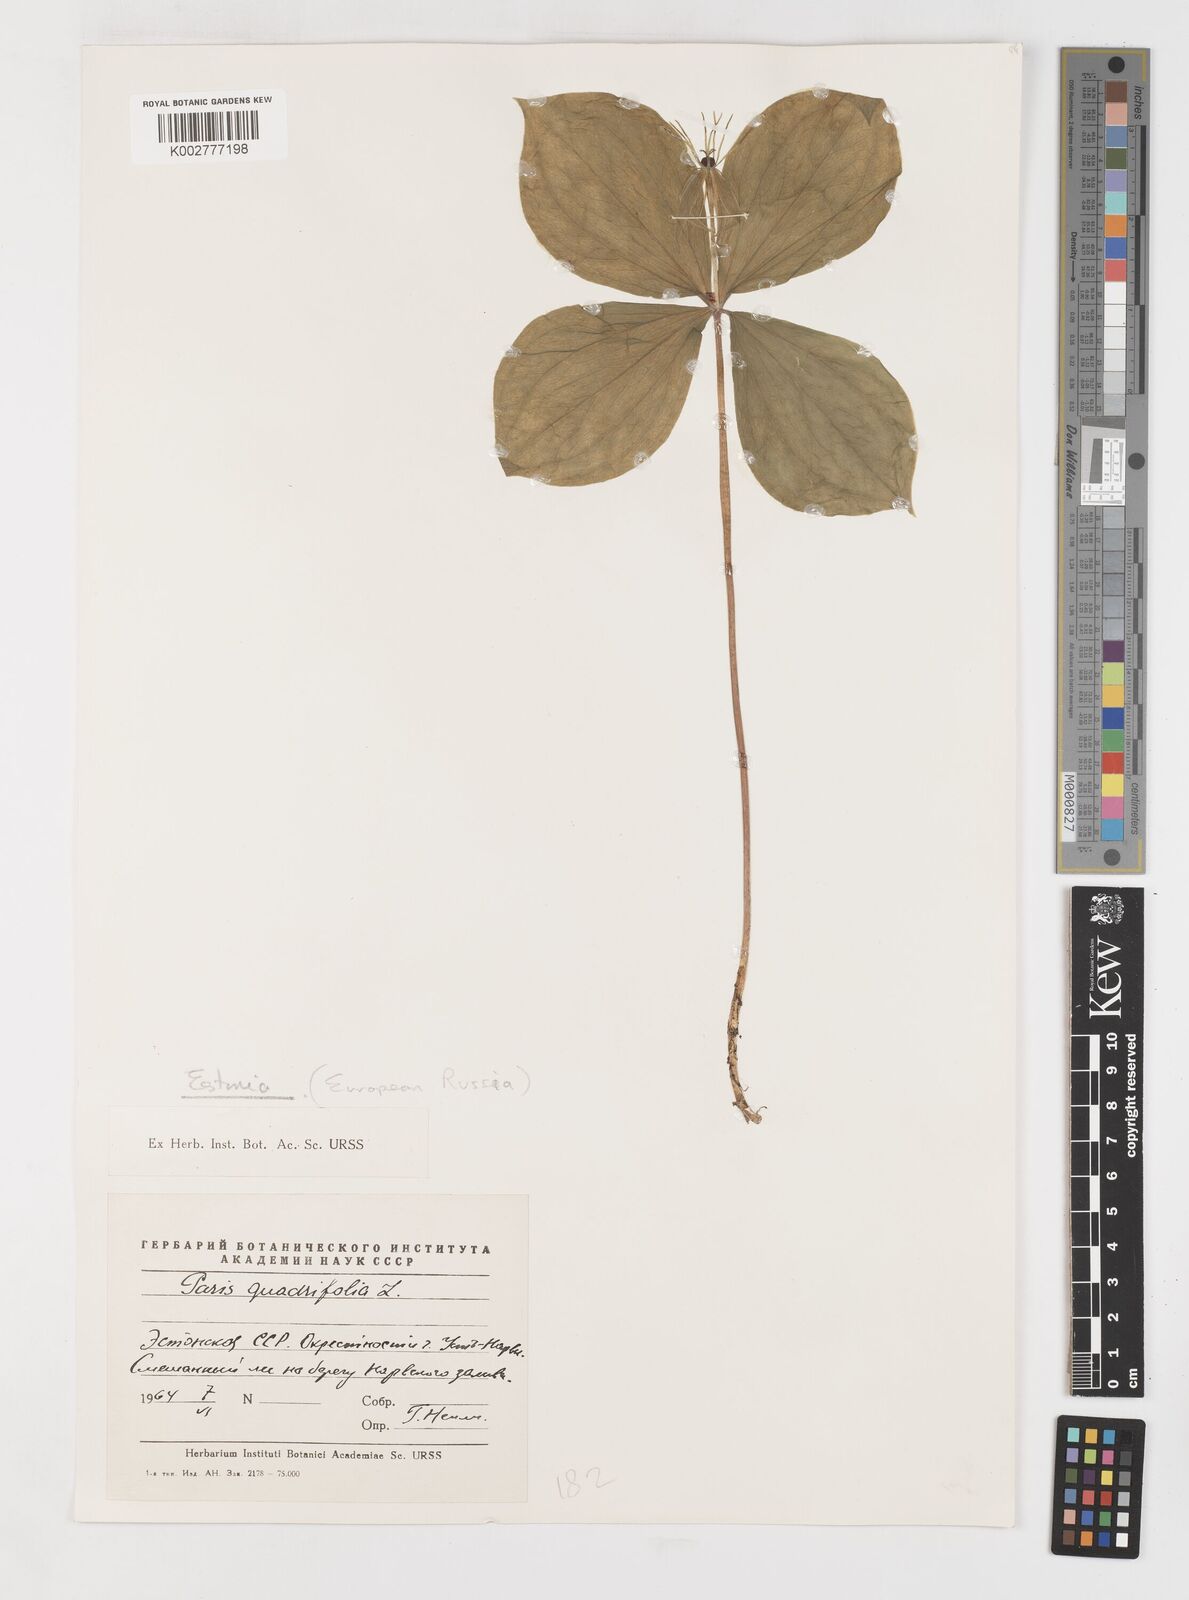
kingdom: Plantae
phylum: Tracheophyta
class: Liliopsida
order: Liliales
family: Melanthiaceae
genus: Paris
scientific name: Paris quadrifolia
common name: Herb-paris
